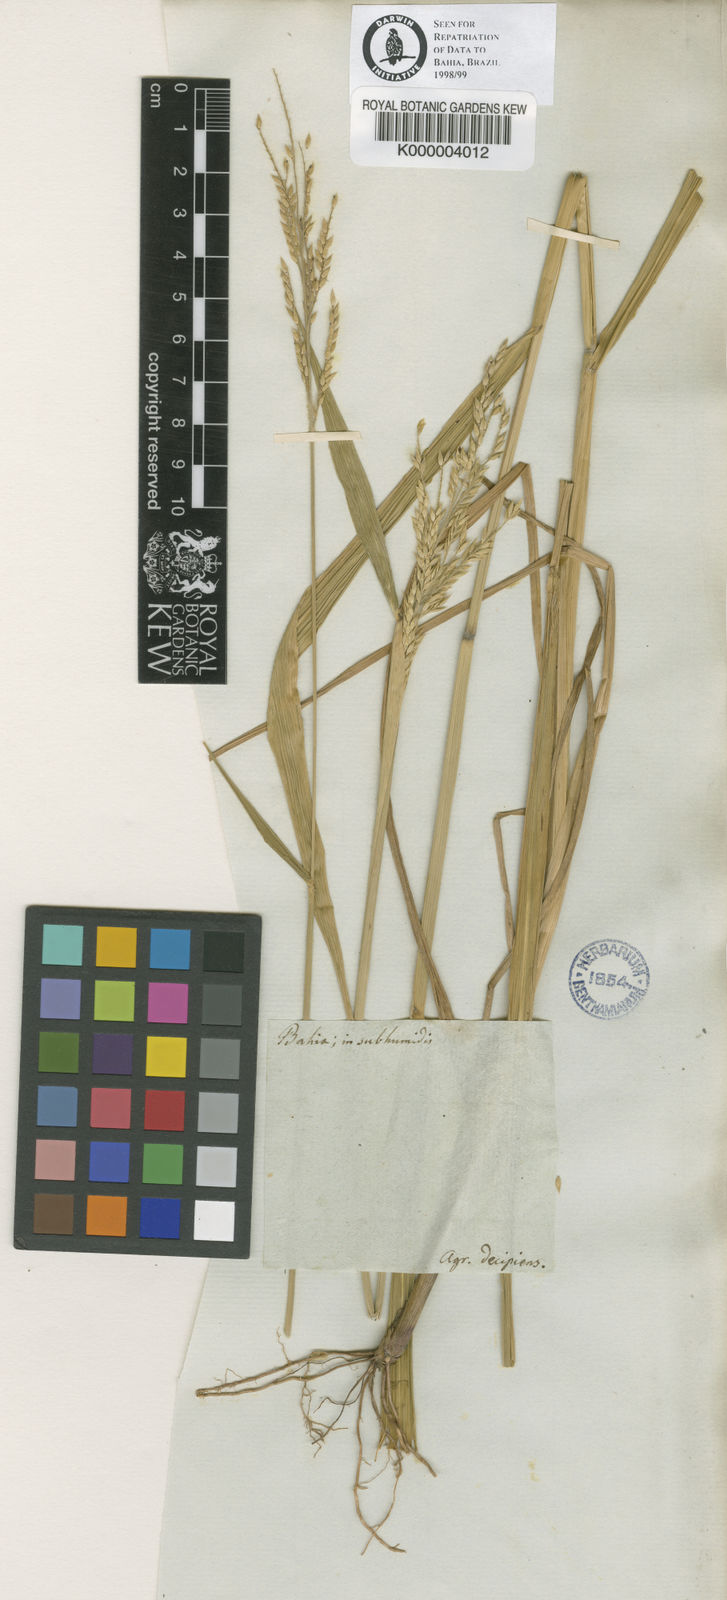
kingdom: Plantae
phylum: Tracheophyta
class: Liliopsida
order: Poales
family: Poaceae
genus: Eriochloa
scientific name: Eriochloa punctata
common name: Louisiana cupgrass
